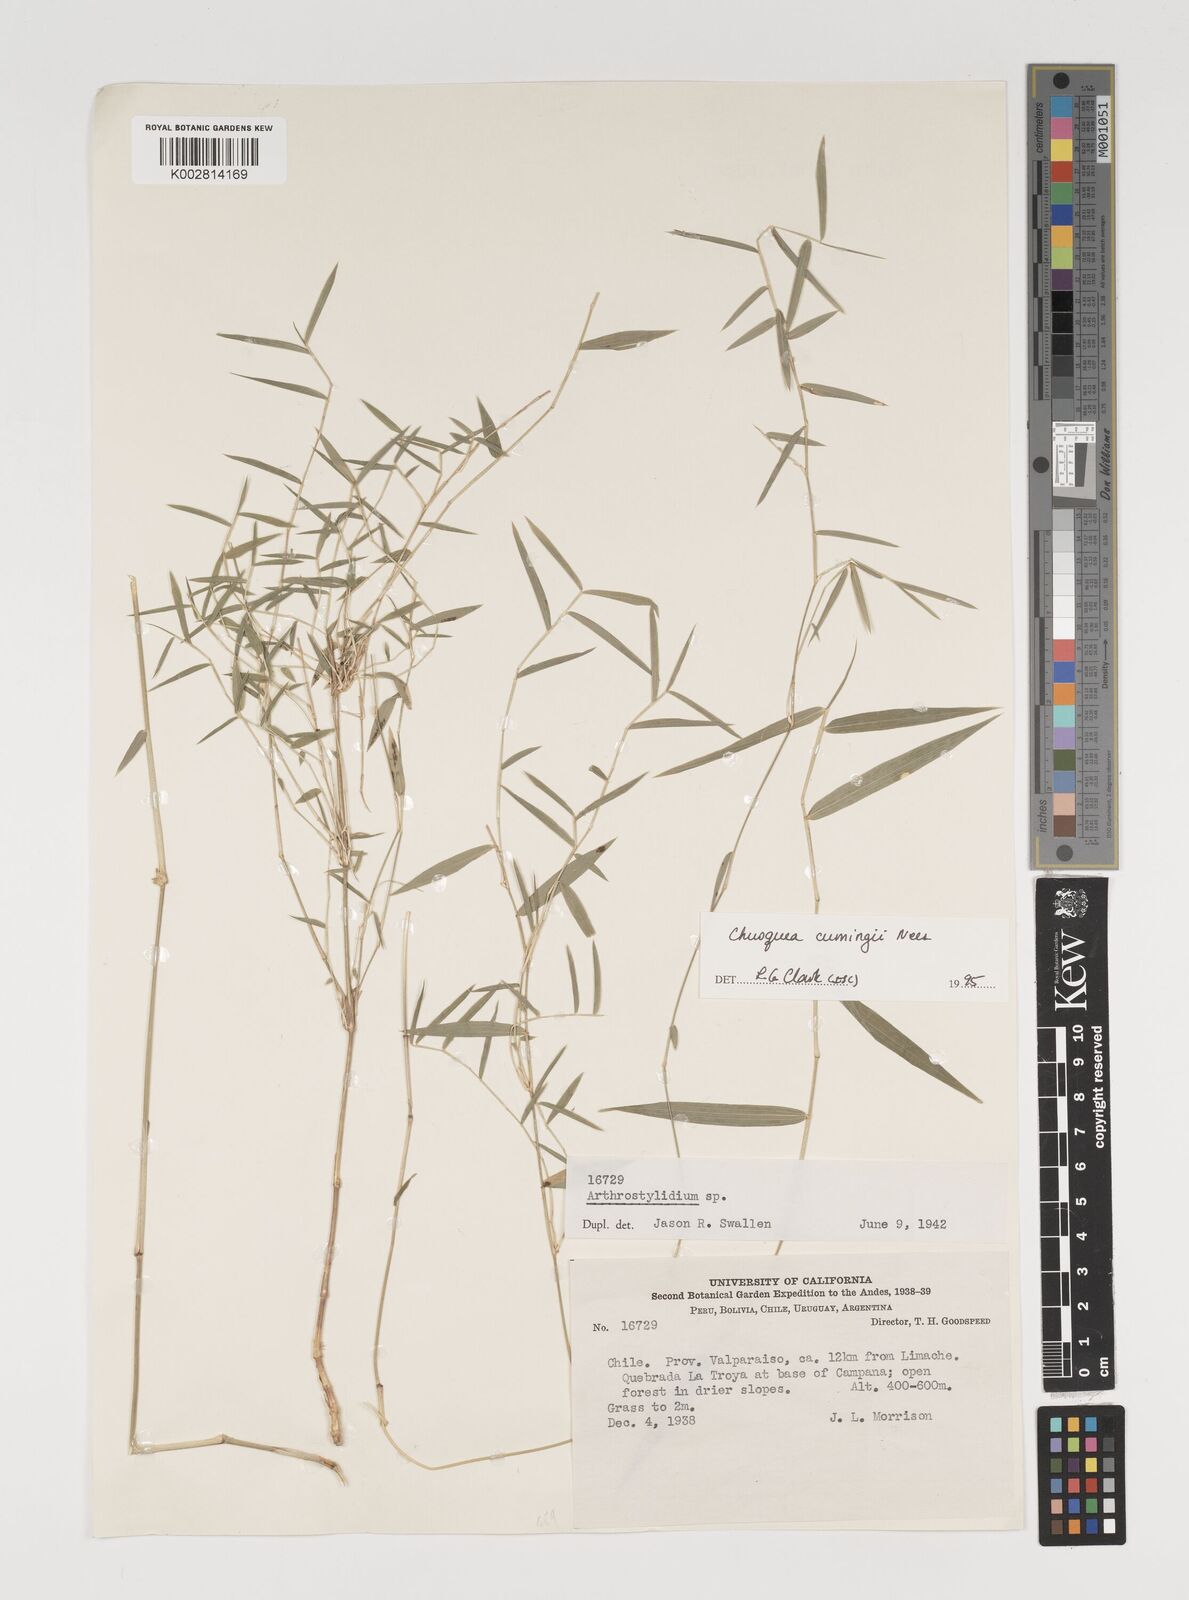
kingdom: Plantae
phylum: Tracheophyta
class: Liliopsida
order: Poales
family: Poaceae
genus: Chusquea
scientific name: Chusquea cumingii
